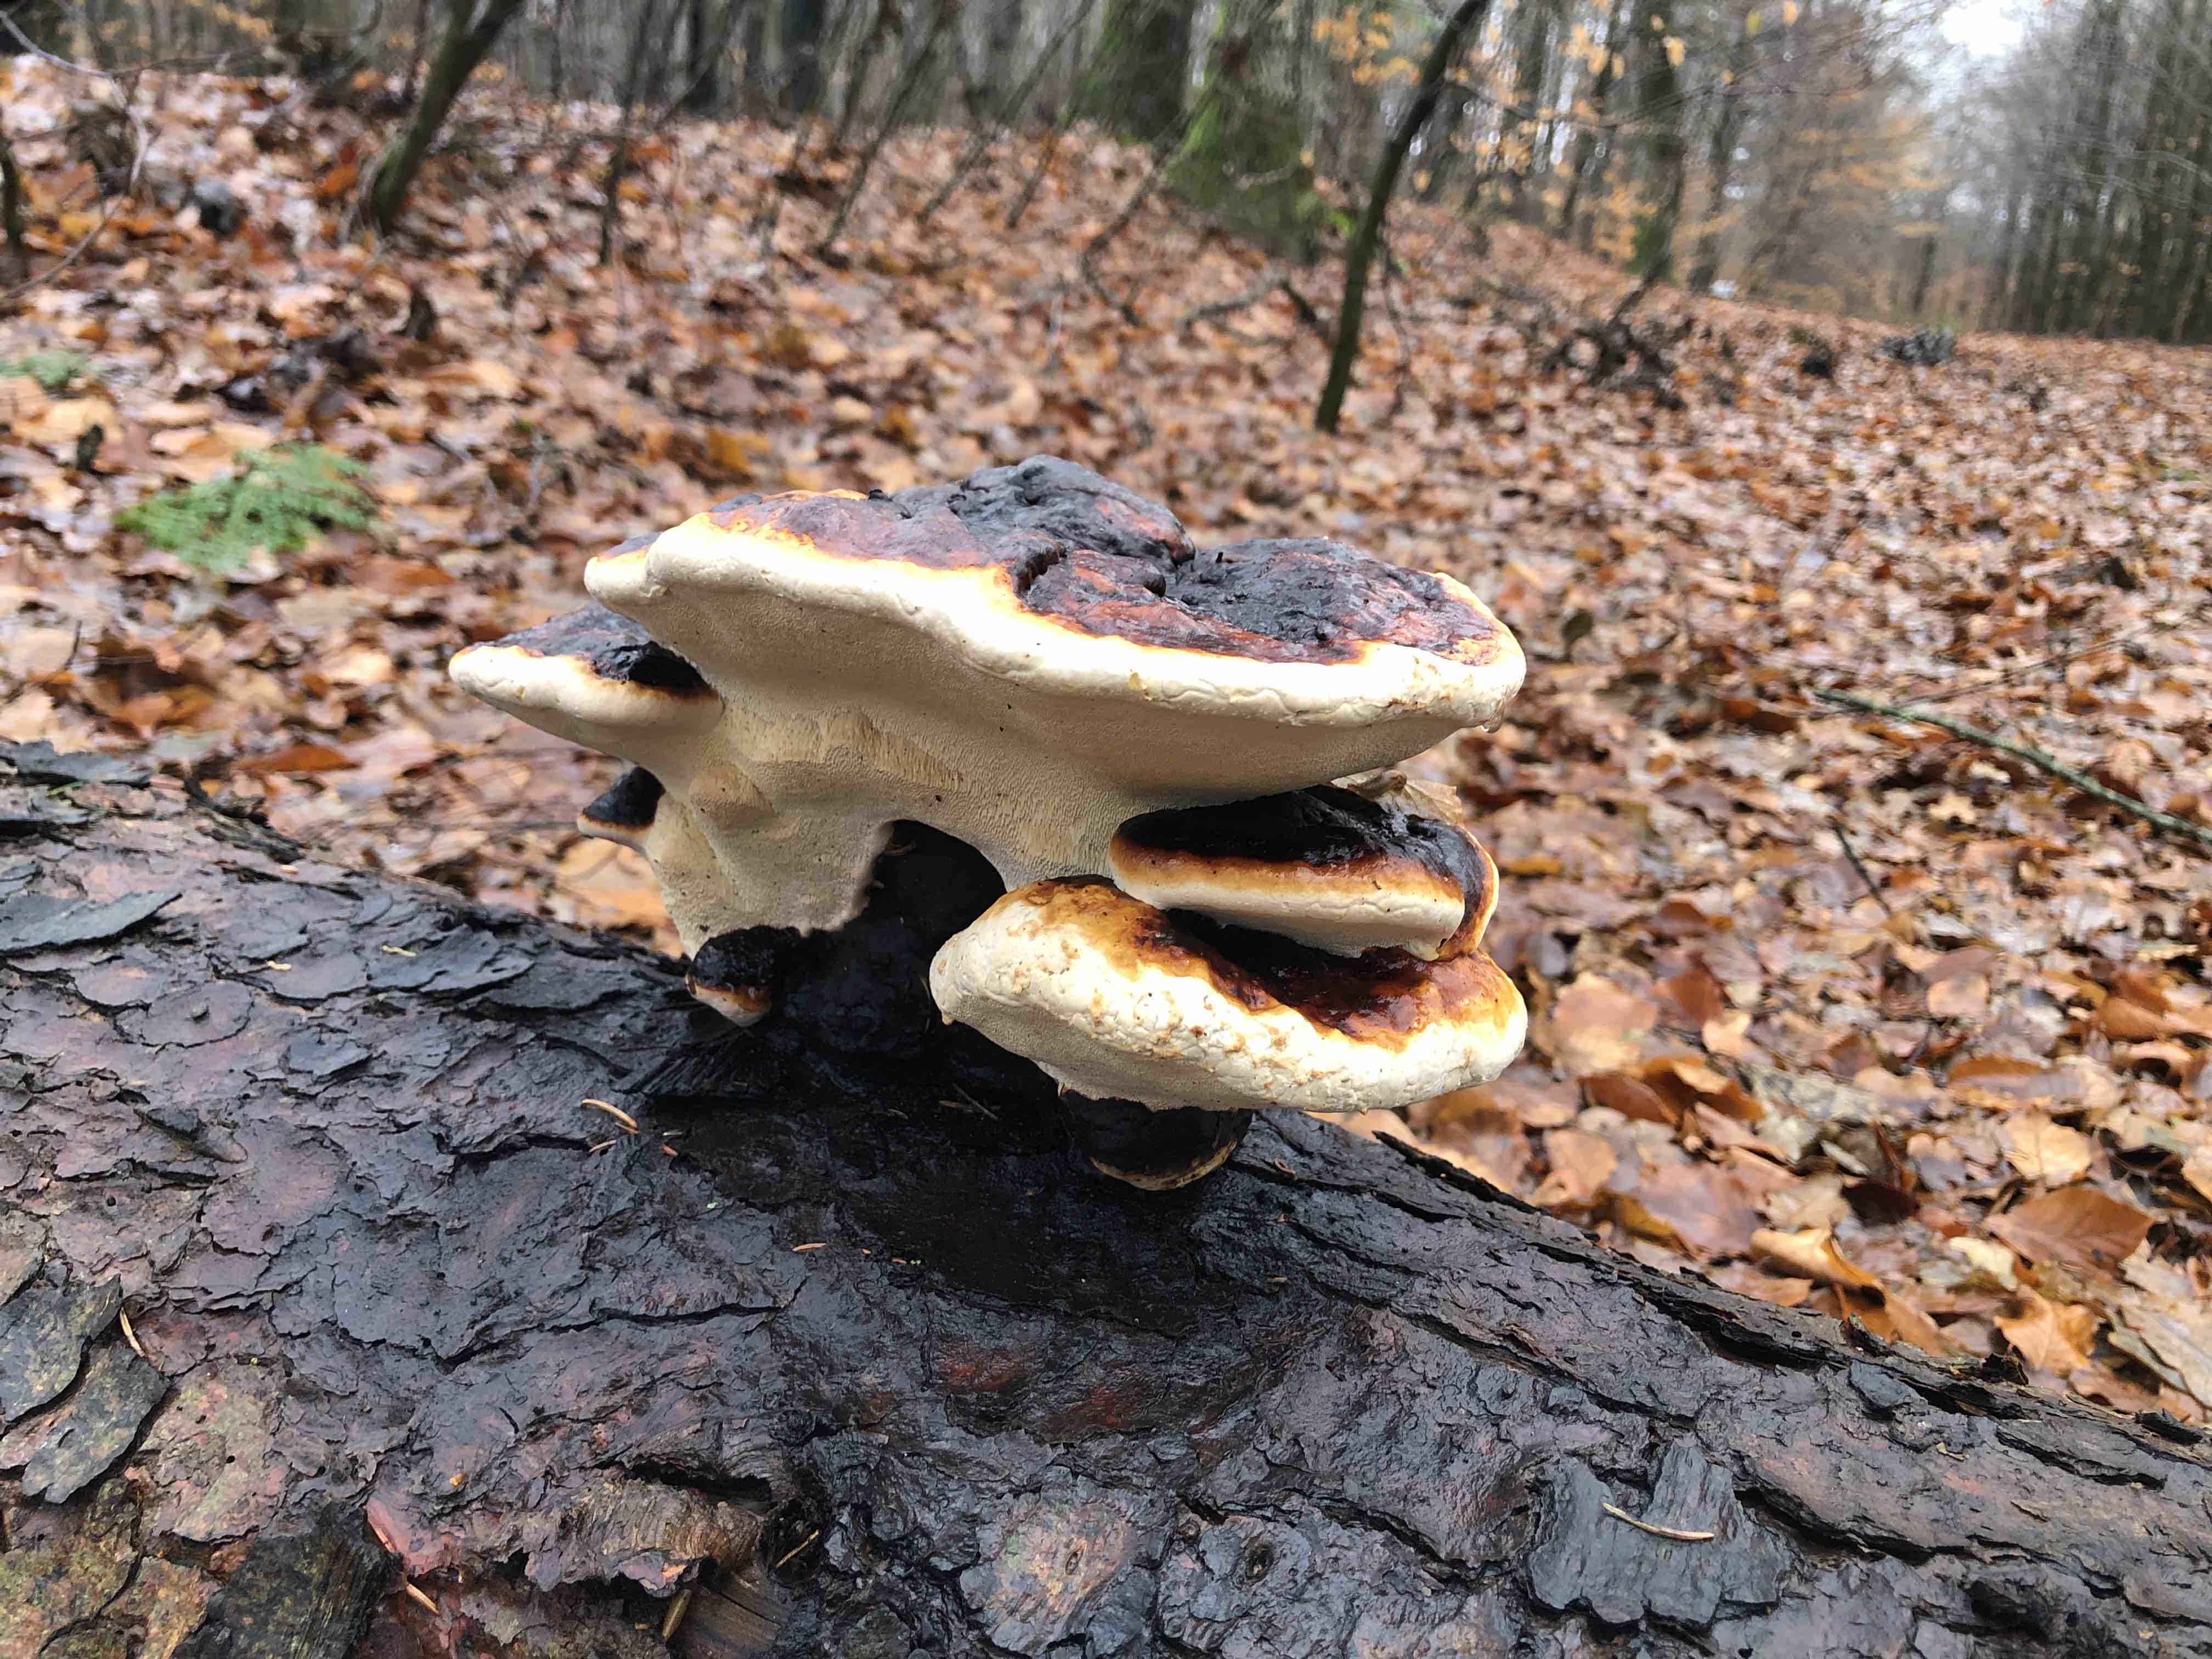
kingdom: Fungi
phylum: Basidiomycota
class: Agaricomycetes
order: Polyporales
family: Fomitopsidaceae
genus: Fomitopsis
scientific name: Fomitopsis pinicola
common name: randbæltet hovporesvamp
